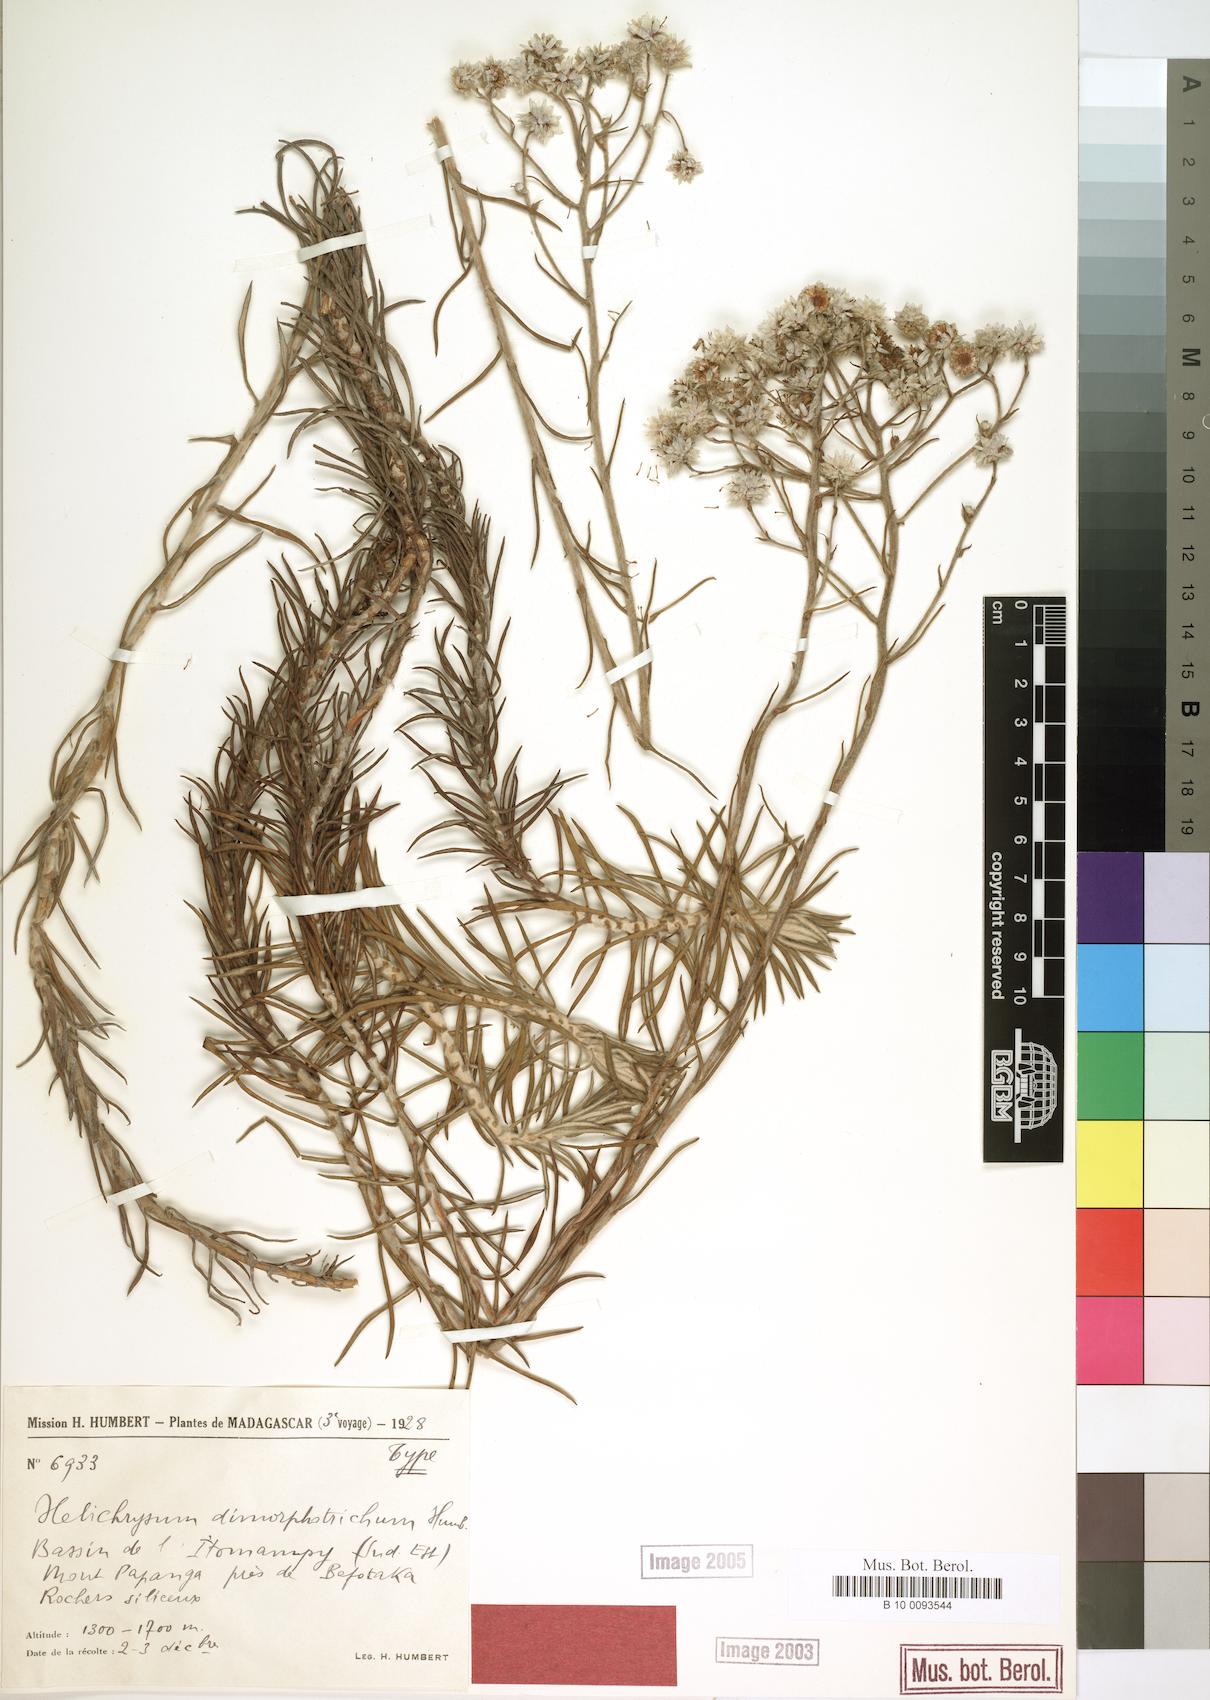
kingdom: Plantae
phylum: Tracheophyta
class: Magnoliopsida
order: Asterales
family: Asteraceae
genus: Helichrysum
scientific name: Helichrysum dimorphotrichum
